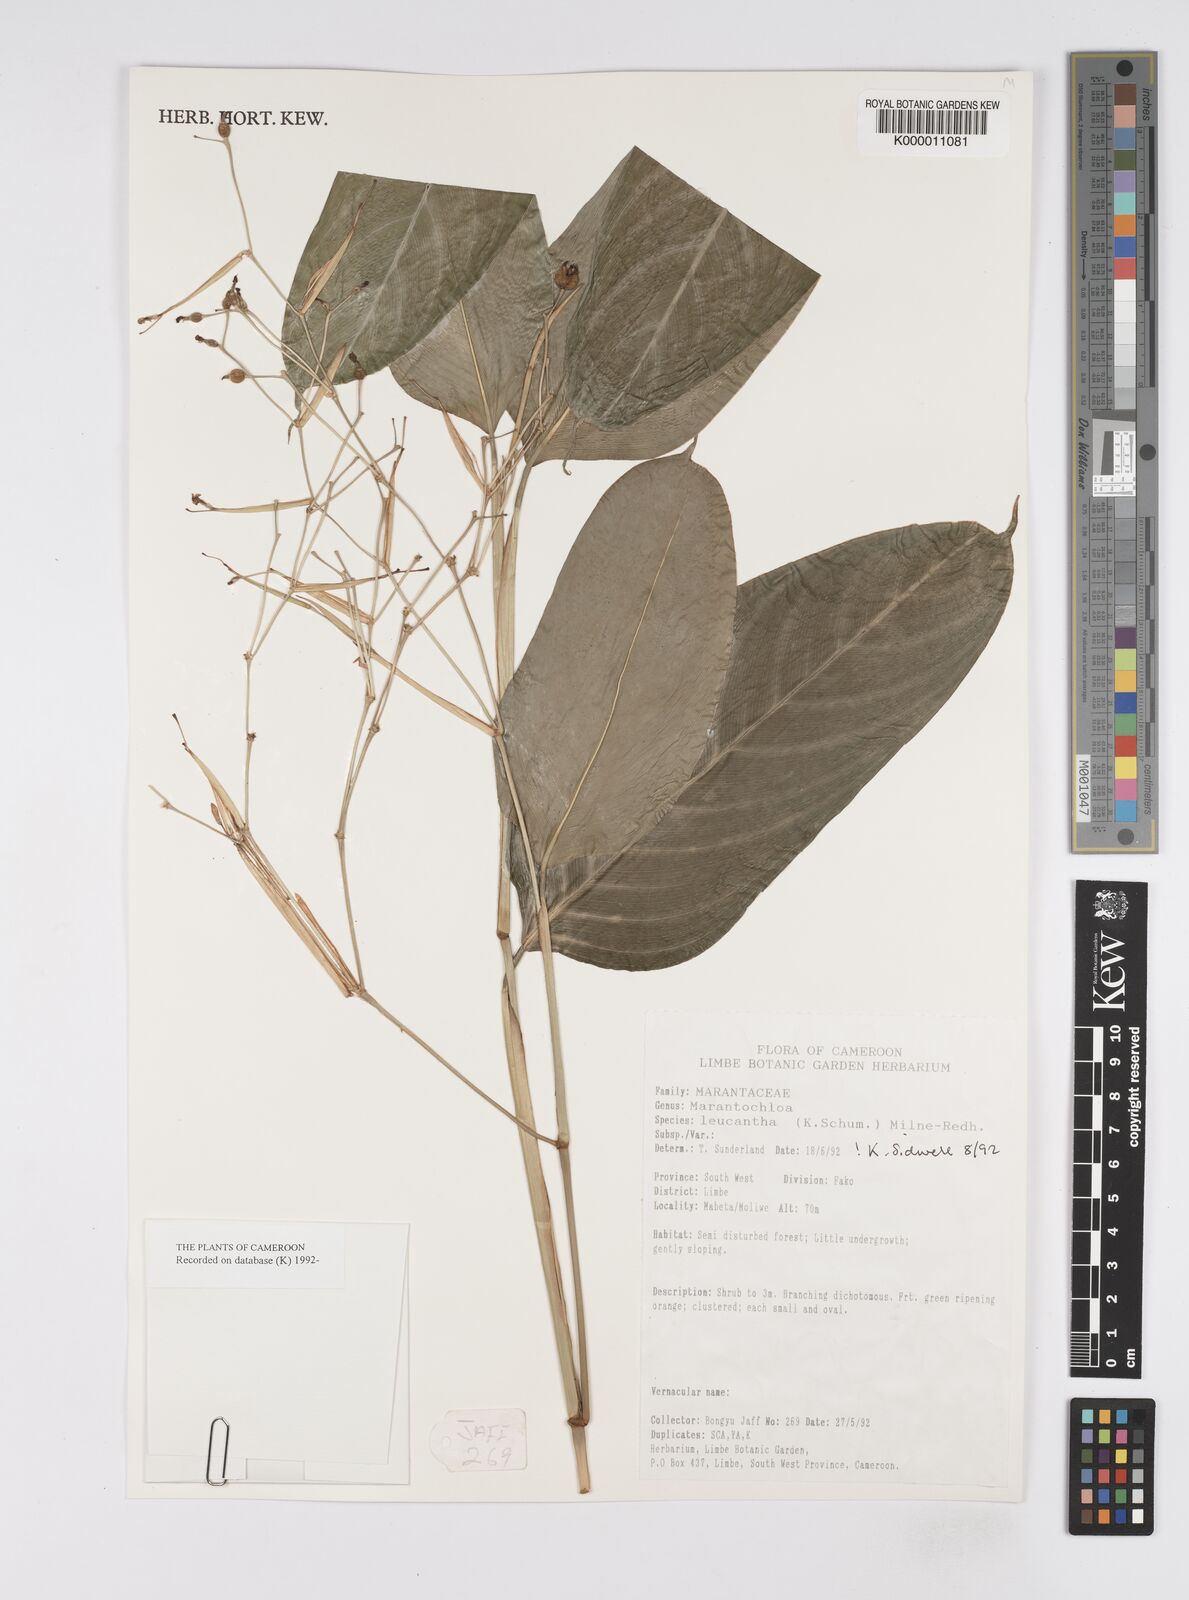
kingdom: Plantae
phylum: Tracheophyta
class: Liliopsida
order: Zingiberales
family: Marantaceae
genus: Marantochloa
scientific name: Marantochloa leucantha
